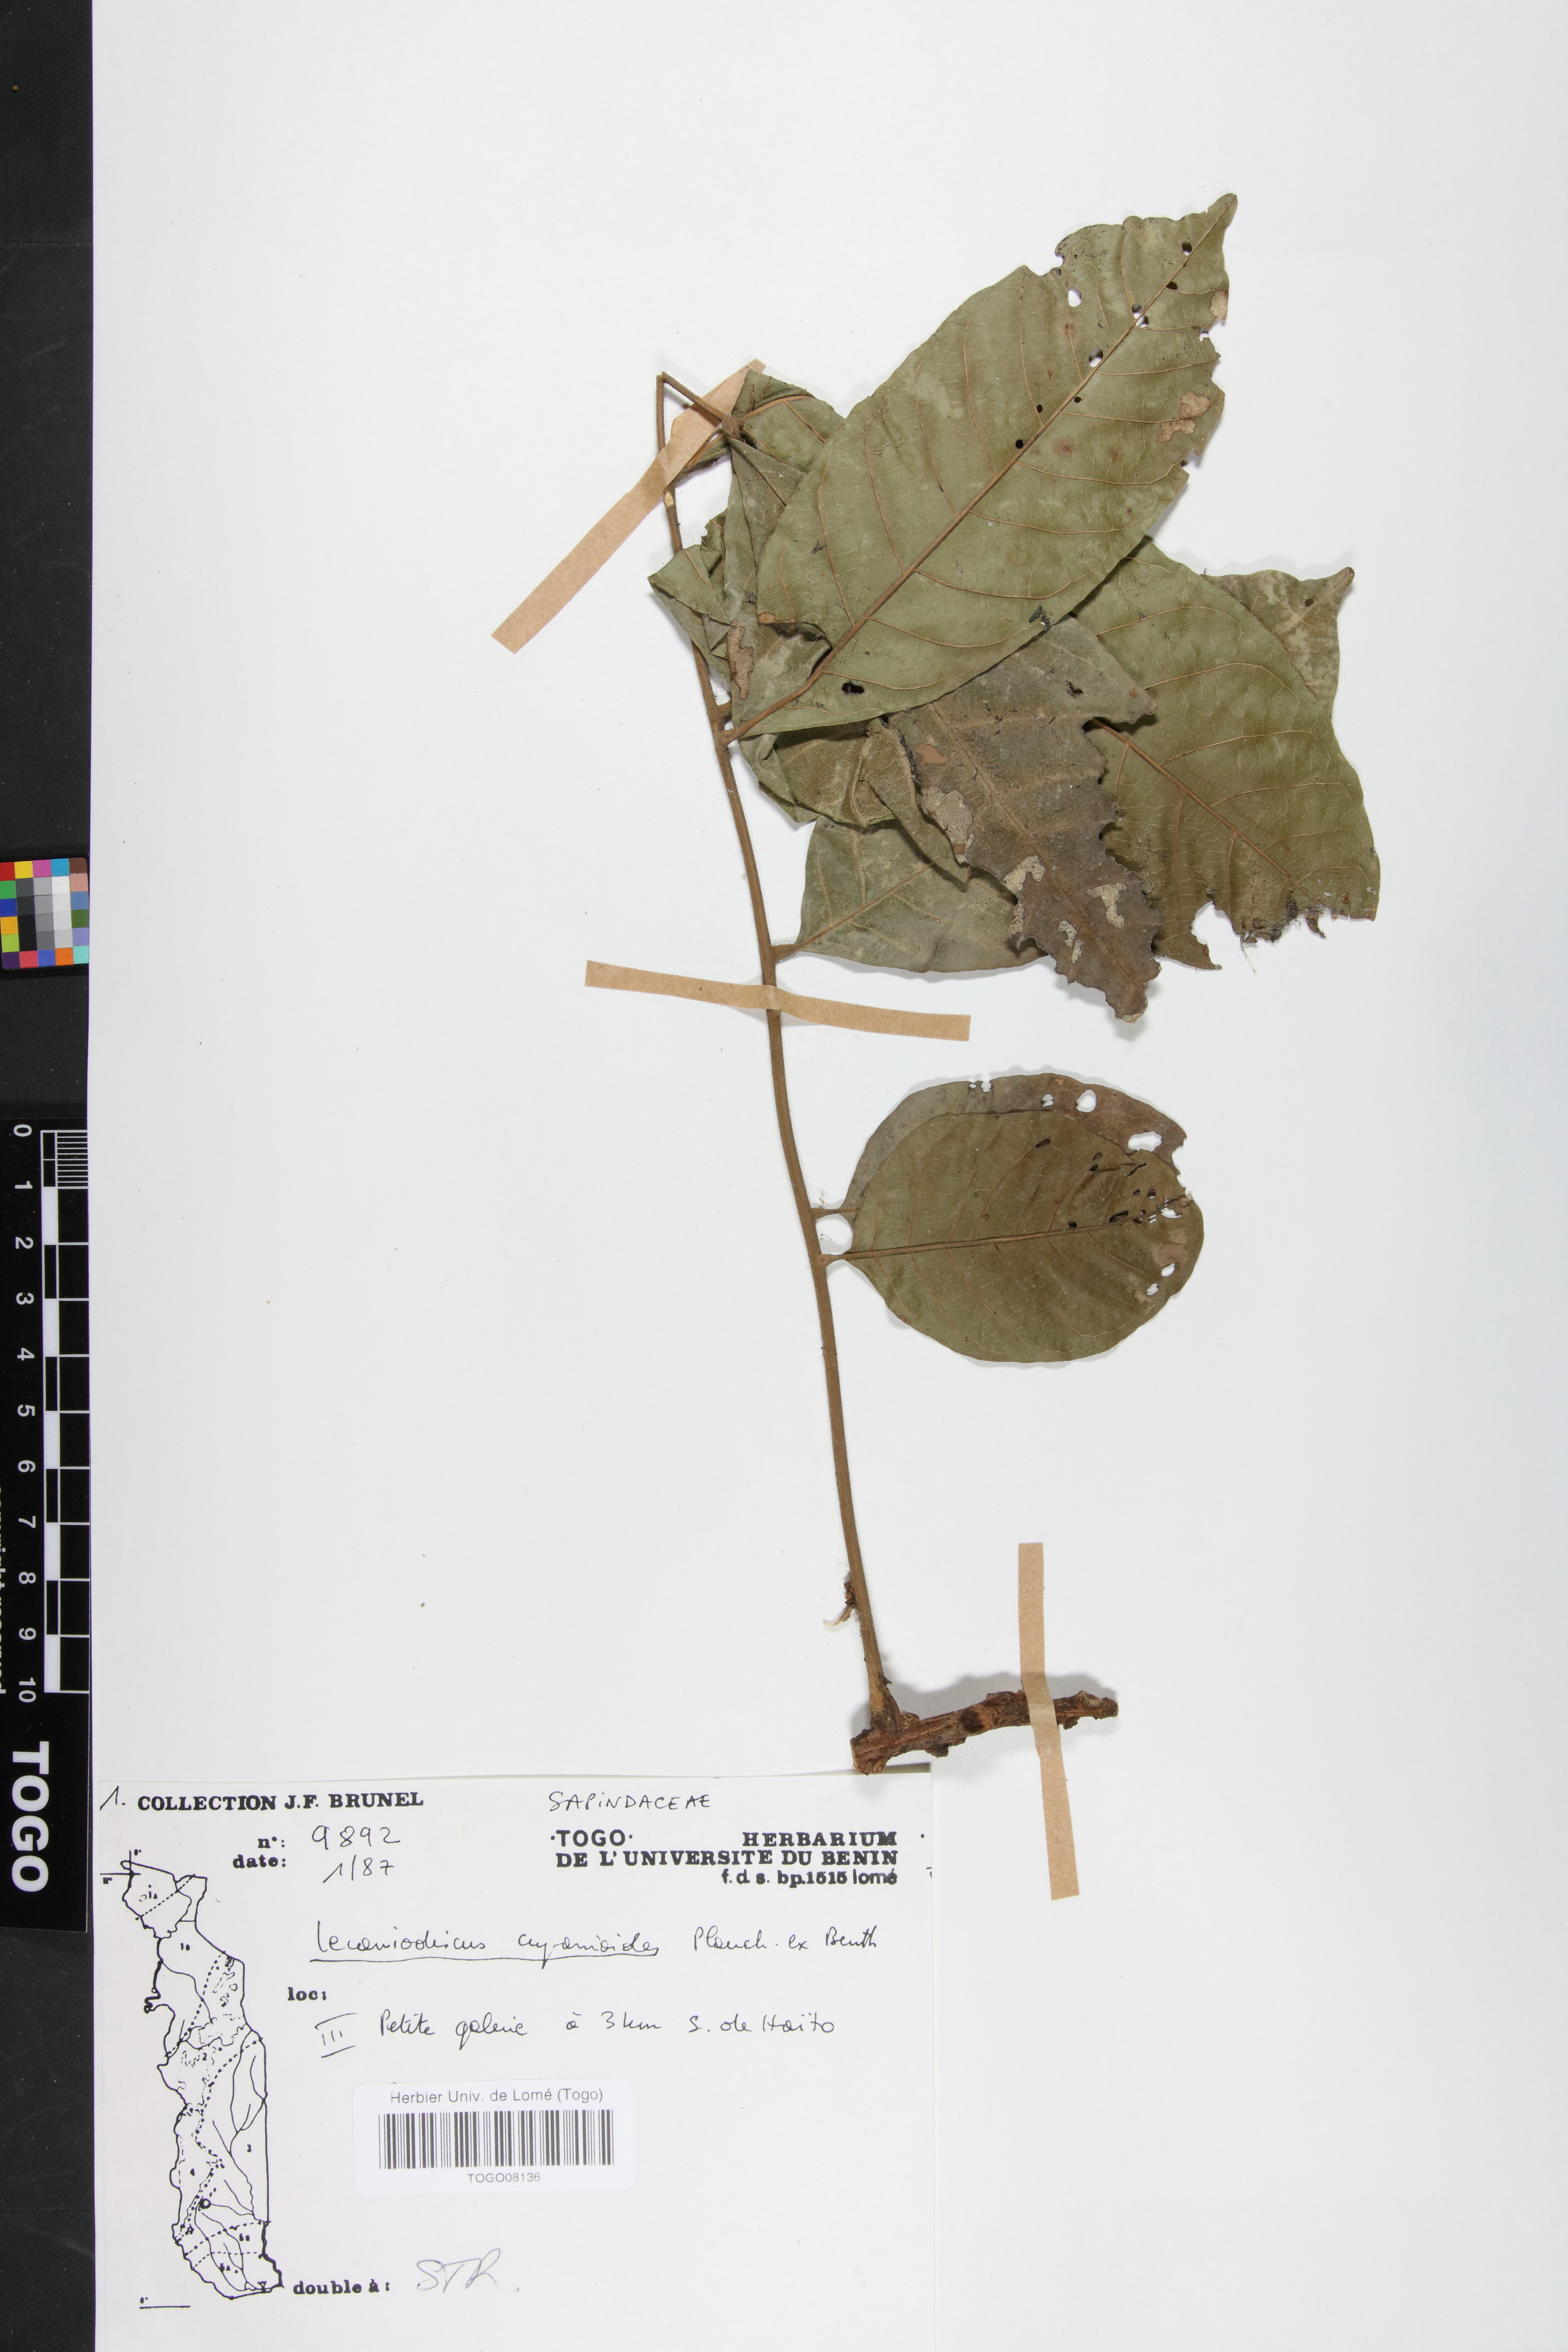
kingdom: Plantae
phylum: Tracheophyta
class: Magnoliopsida
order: Sapindales
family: Sapindaceae
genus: Lecaniodiscus
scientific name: Lecaniodiscus cupanioides
